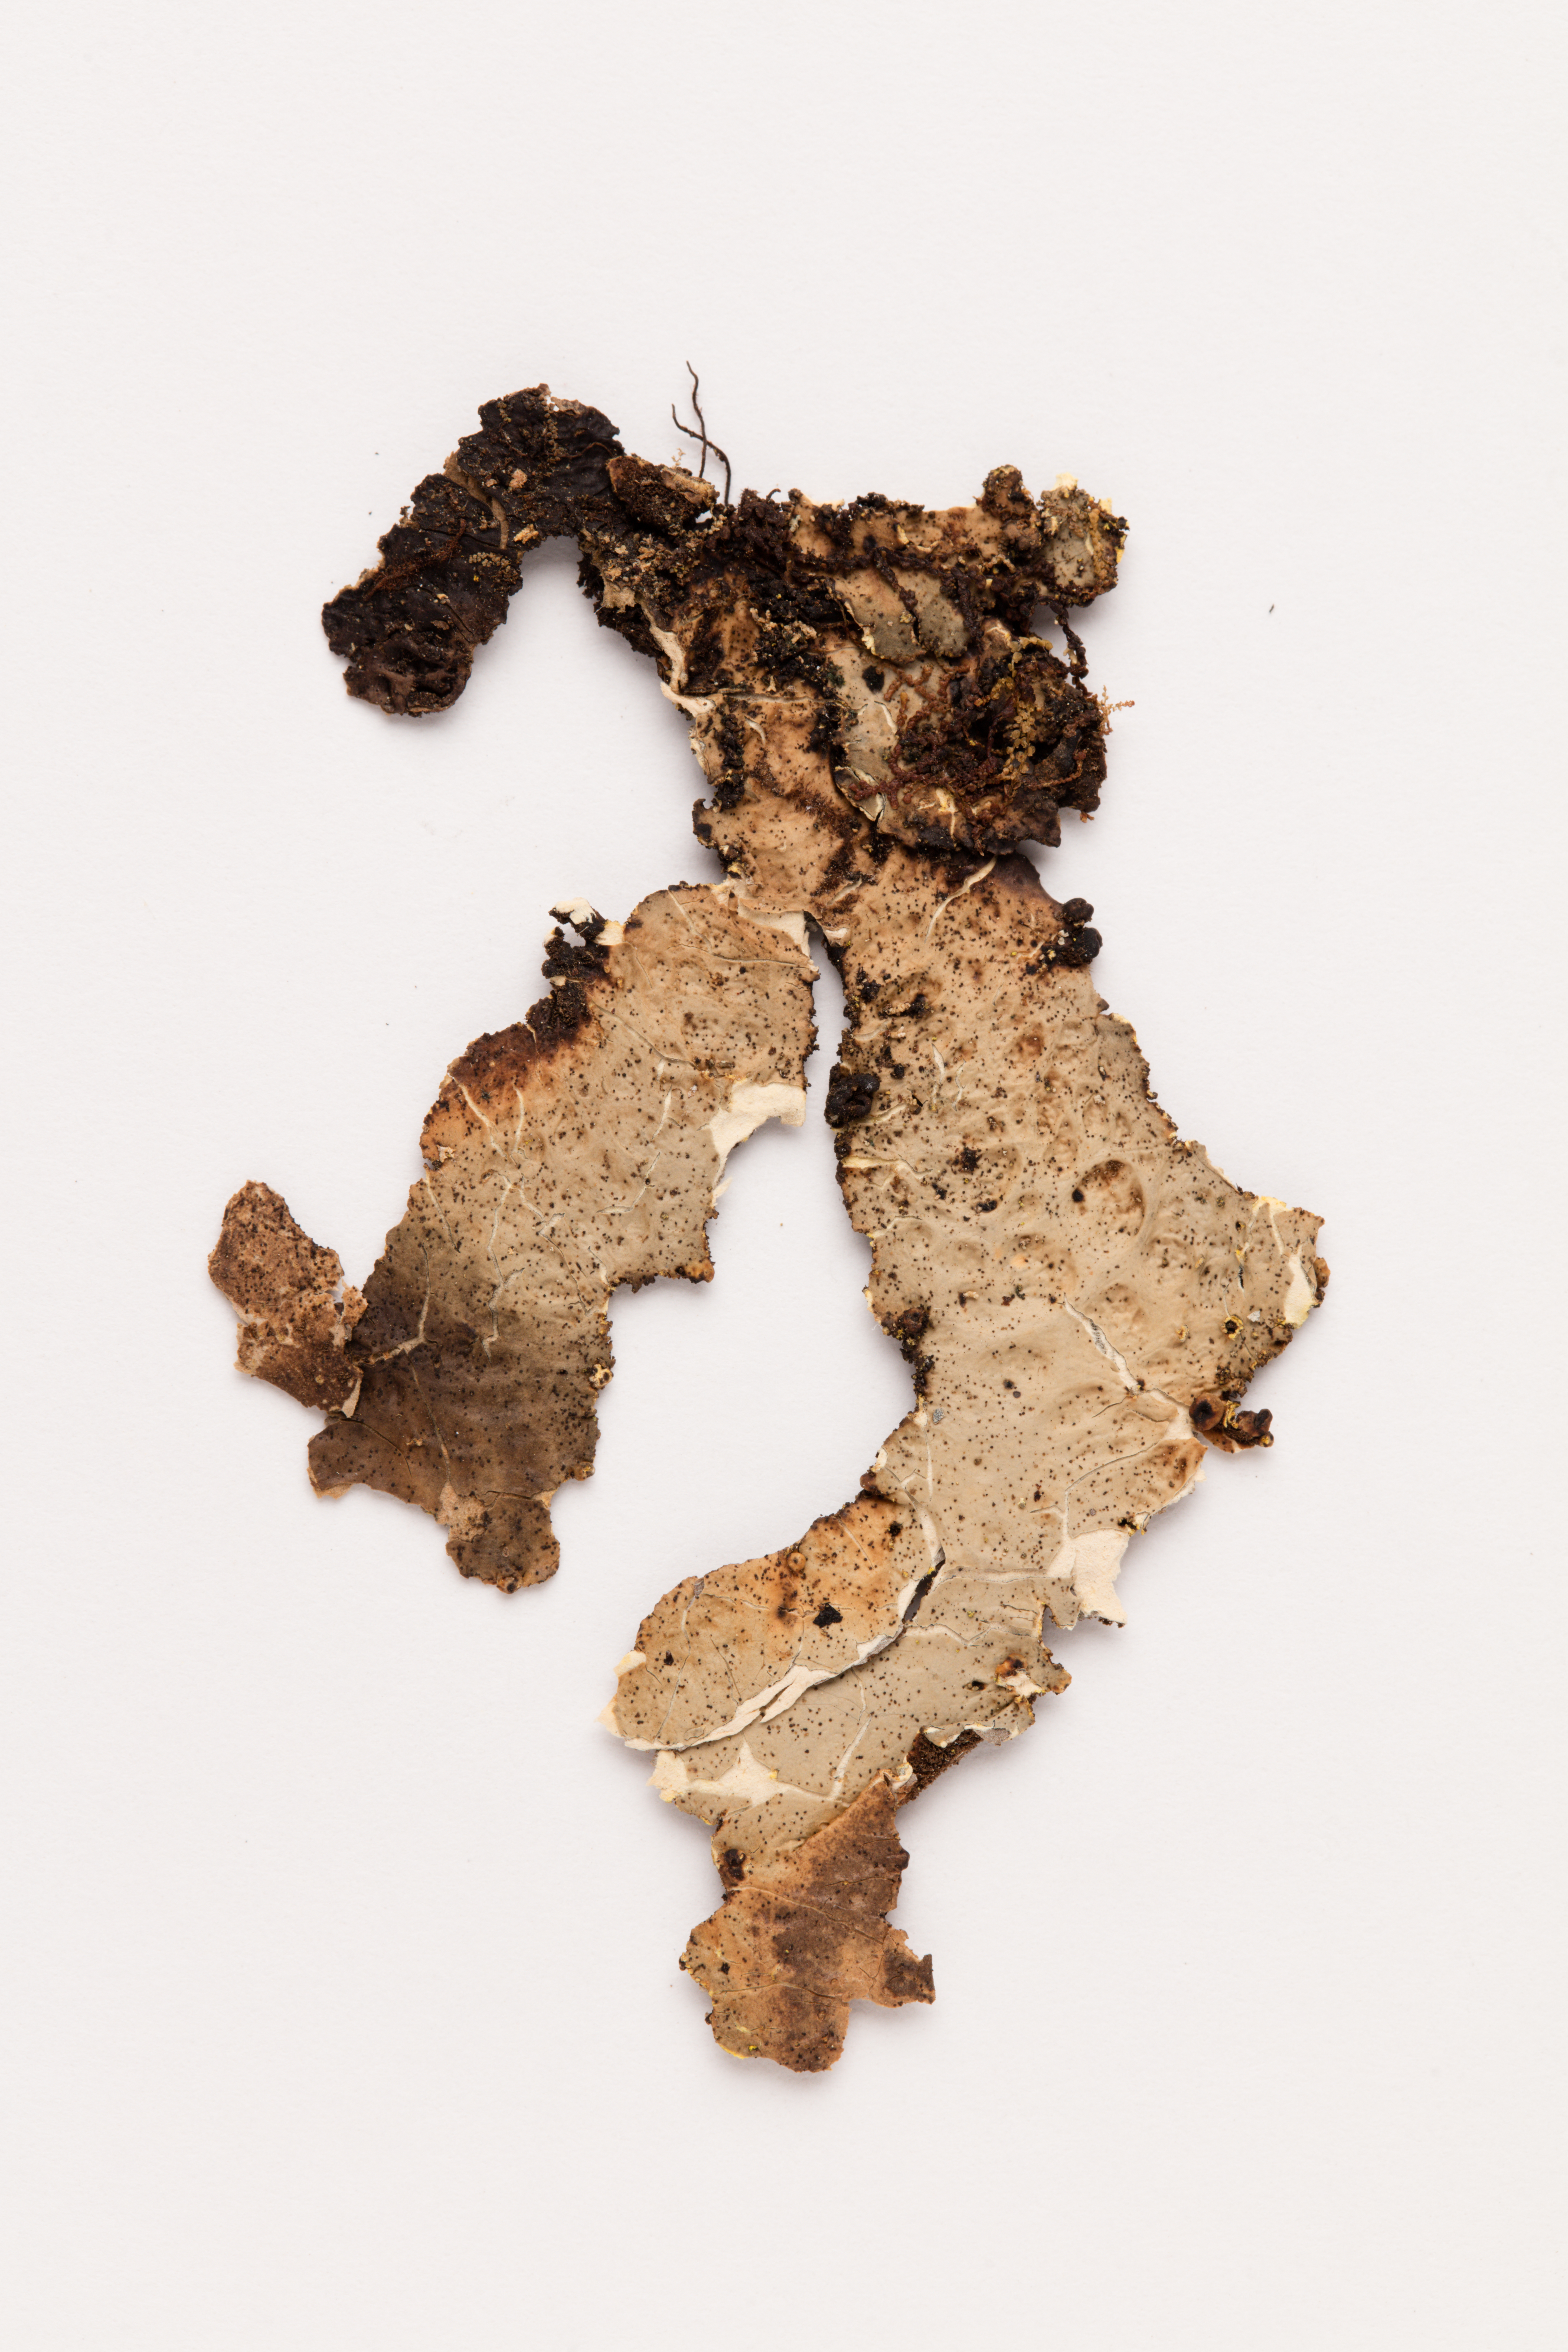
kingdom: Fungi
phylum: Ascomycota
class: Lecanoromycetes
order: Peltigerales
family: Lobariaceae
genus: Pseudocyphellaria
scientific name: Pseudocyphellaria crocata
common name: Golden specklebelly
